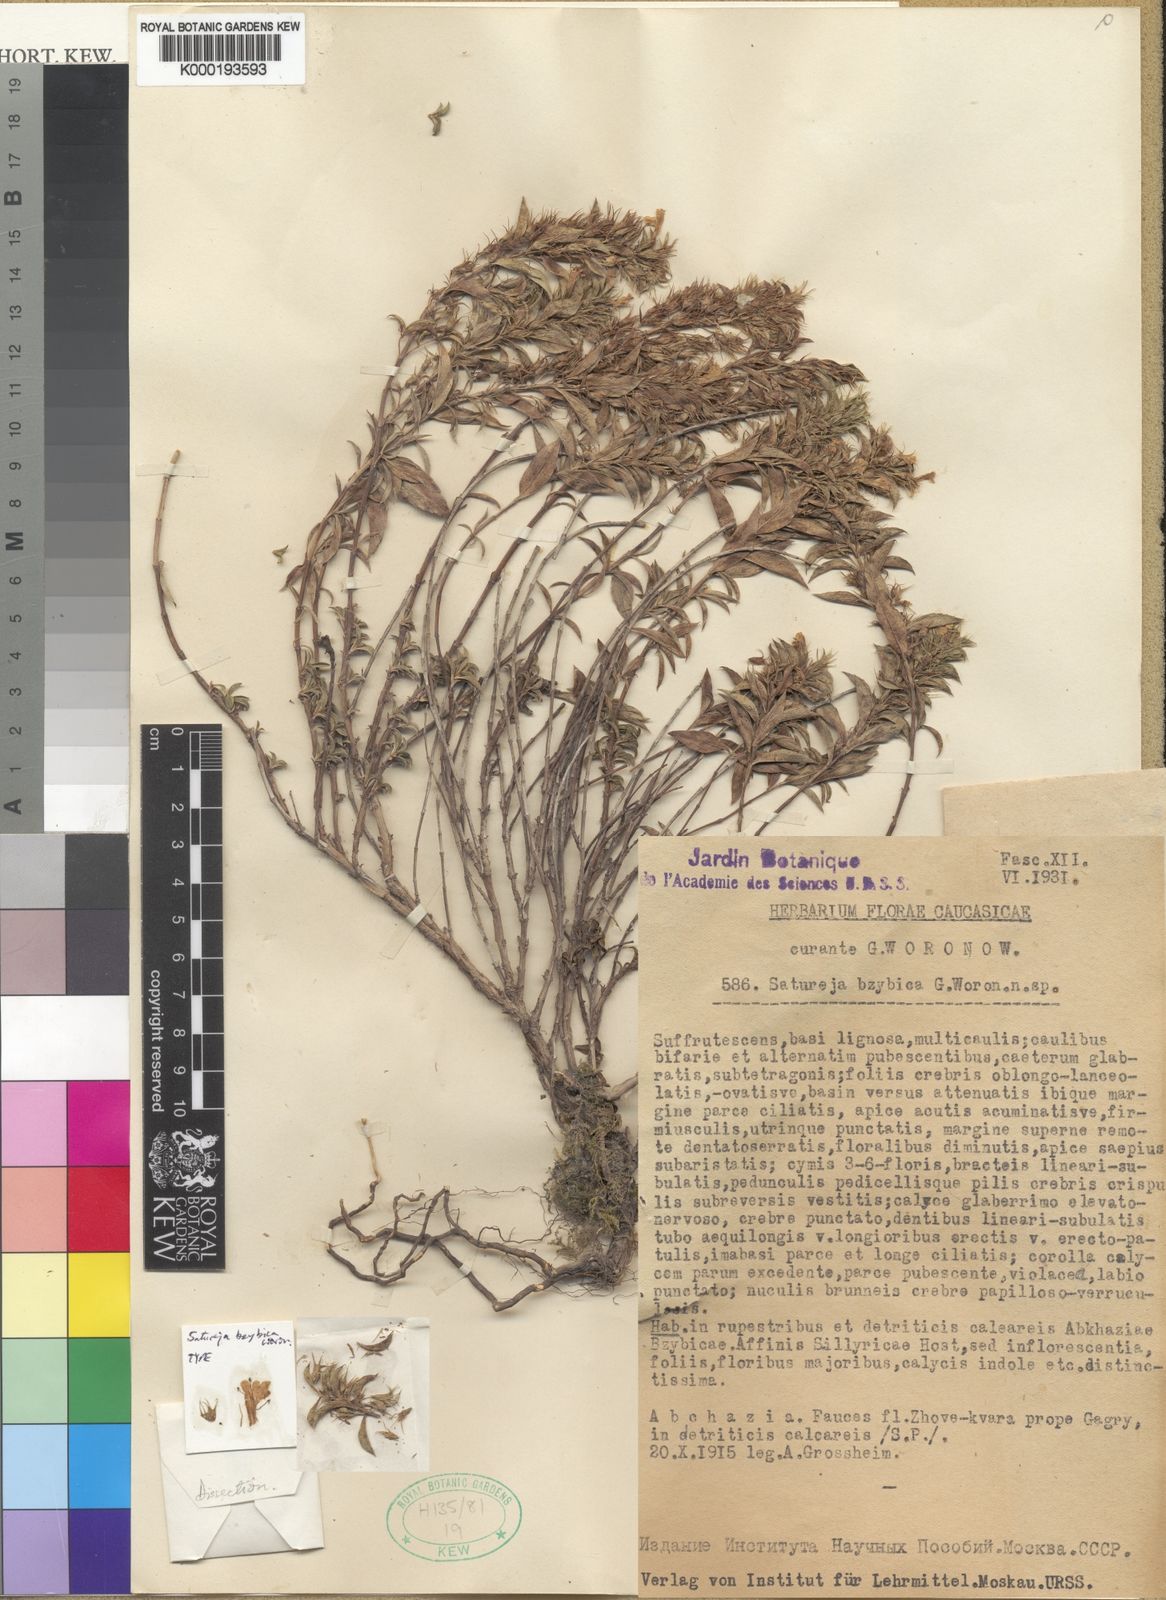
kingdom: Plantae
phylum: Tracheophyta
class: Magnoliopsida
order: Lamiales
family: Lamiaceae
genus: Satureja
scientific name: Satureja bzybica
